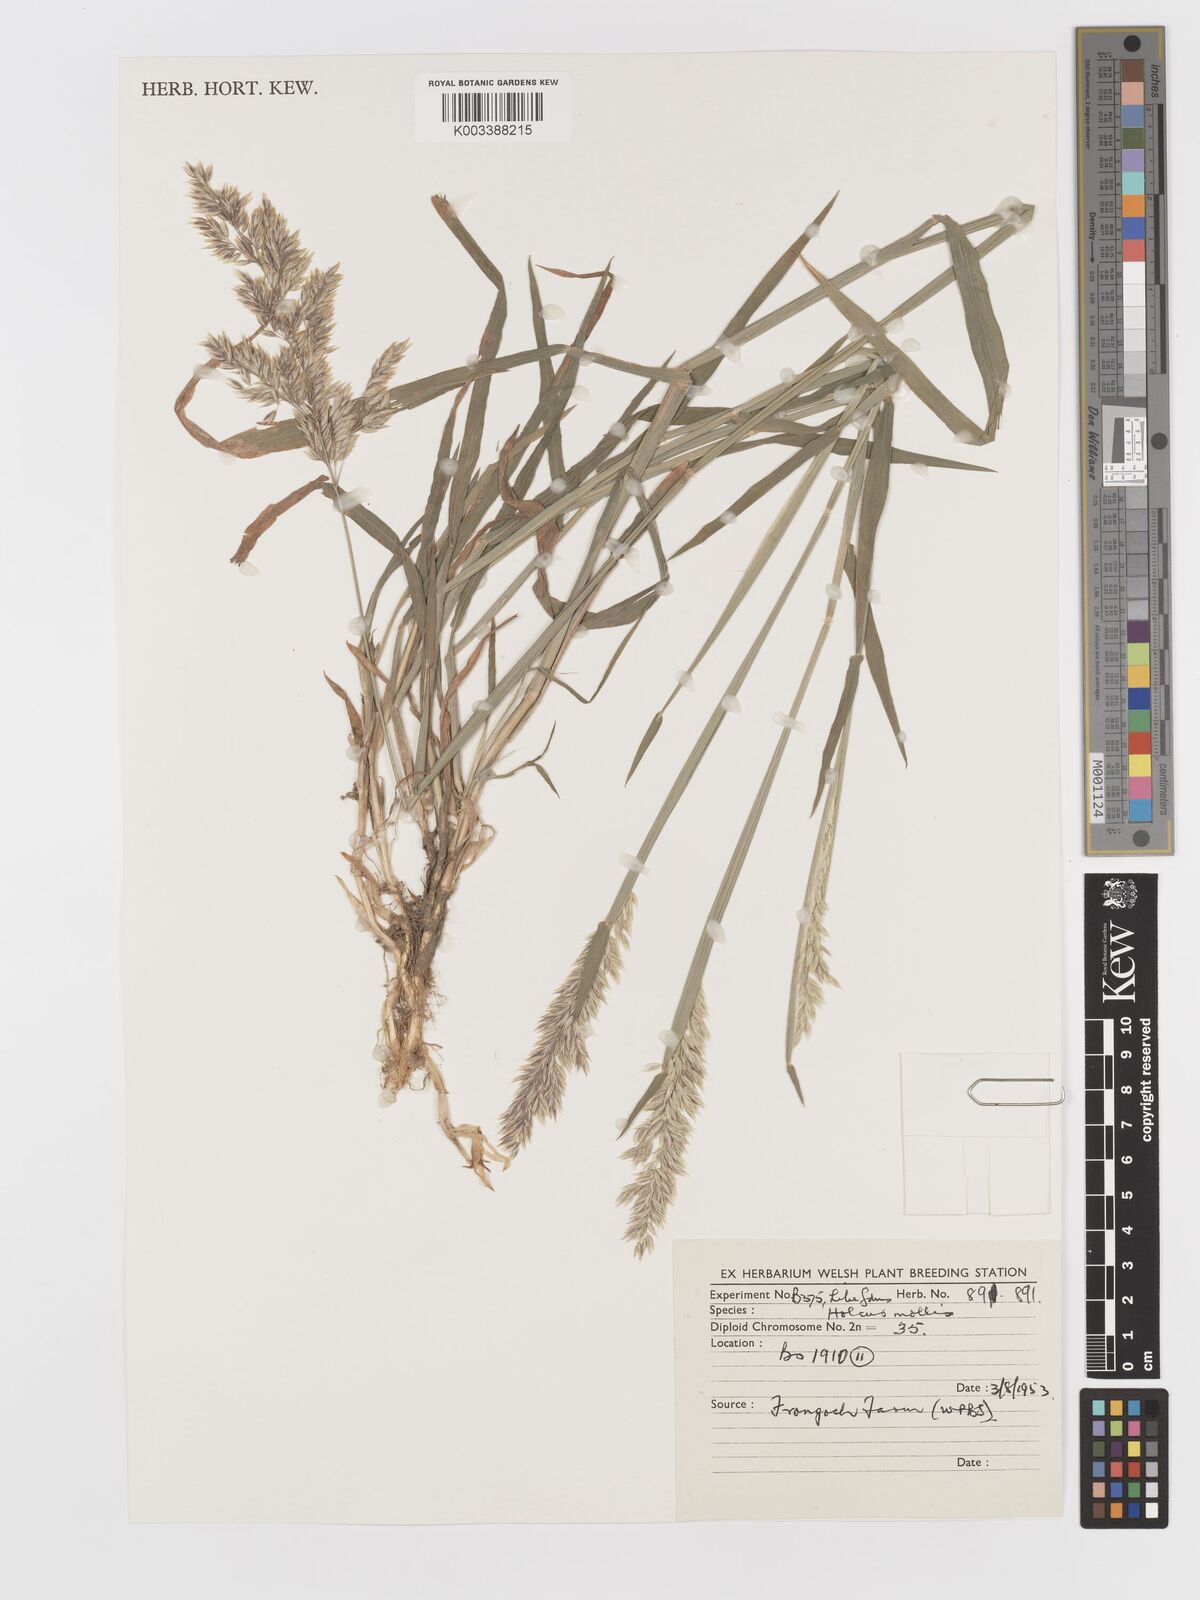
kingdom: Plantae
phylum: Tracheophyta
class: Liliopsida
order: Poales
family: Poaceae
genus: Holcus
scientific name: Holcus mollis
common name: Creeping velvetgrass
